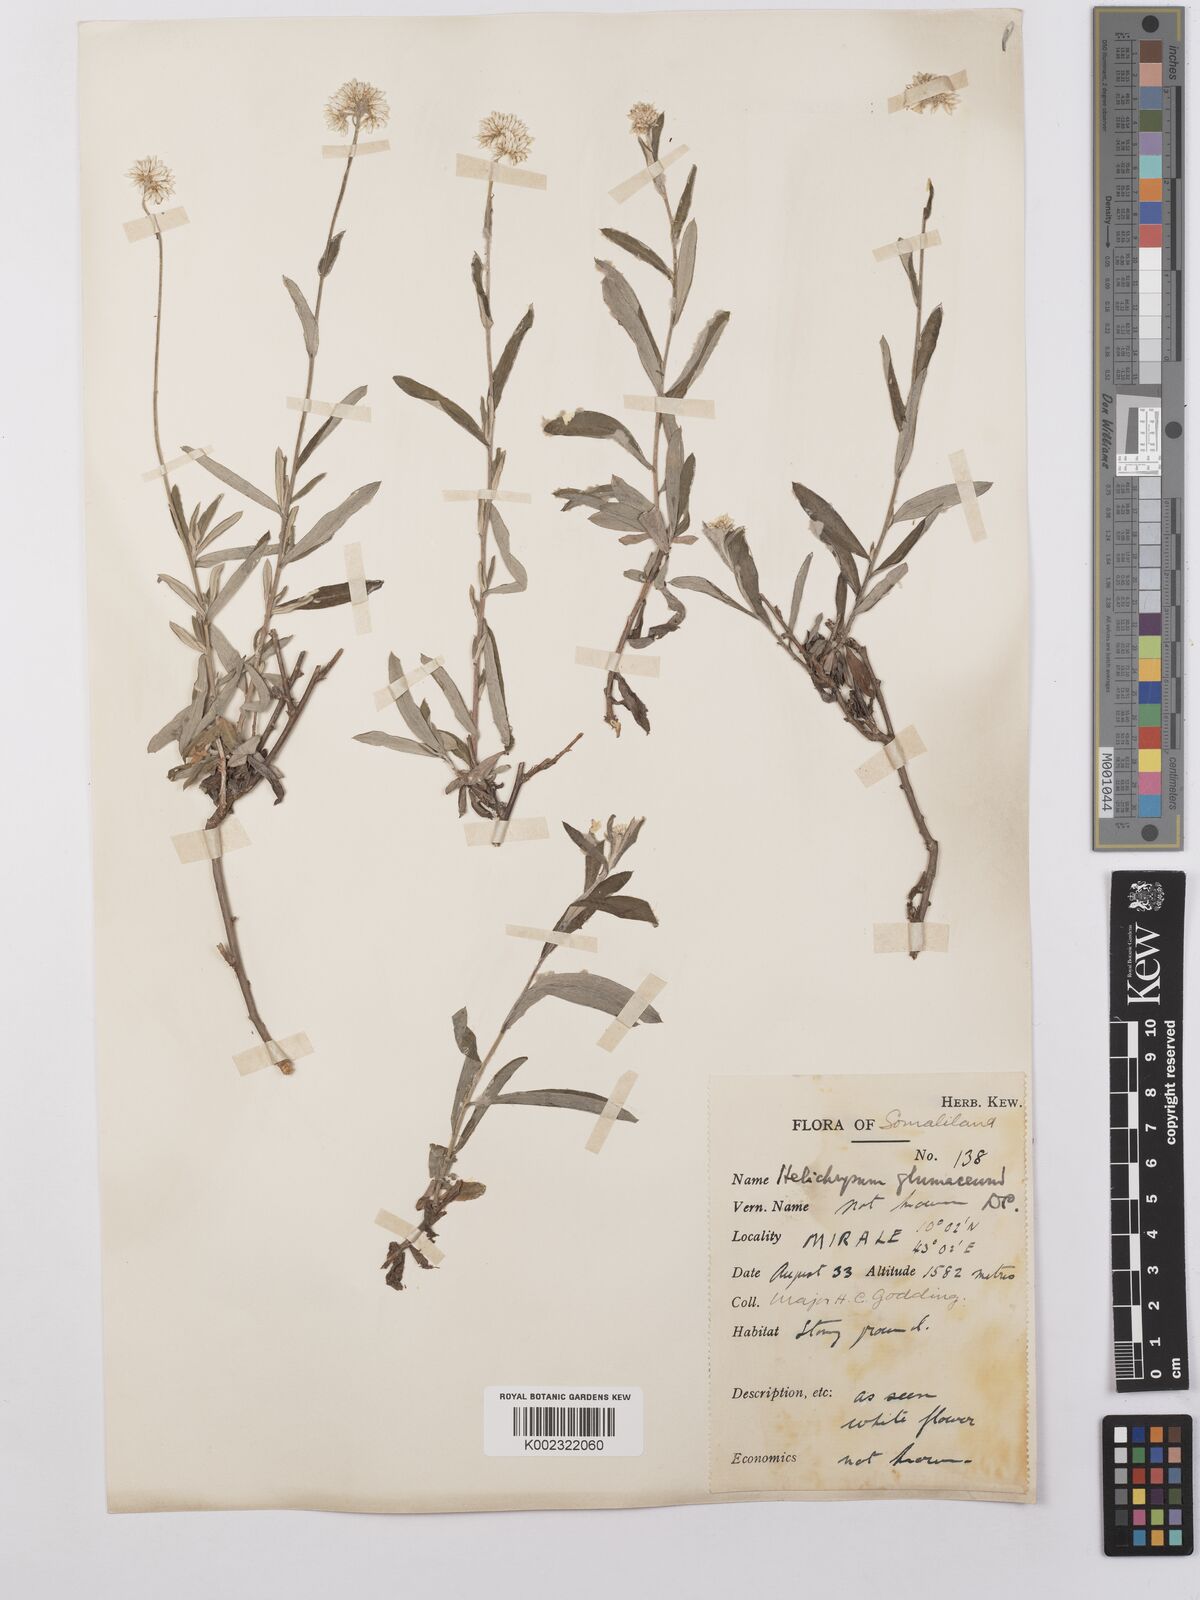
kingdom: Plantae
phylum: Tracheophyta
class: Magnoliopsida
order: Asterales
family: Asteraceae
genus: Helichrysum
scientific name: Helichrysum glumaceum
